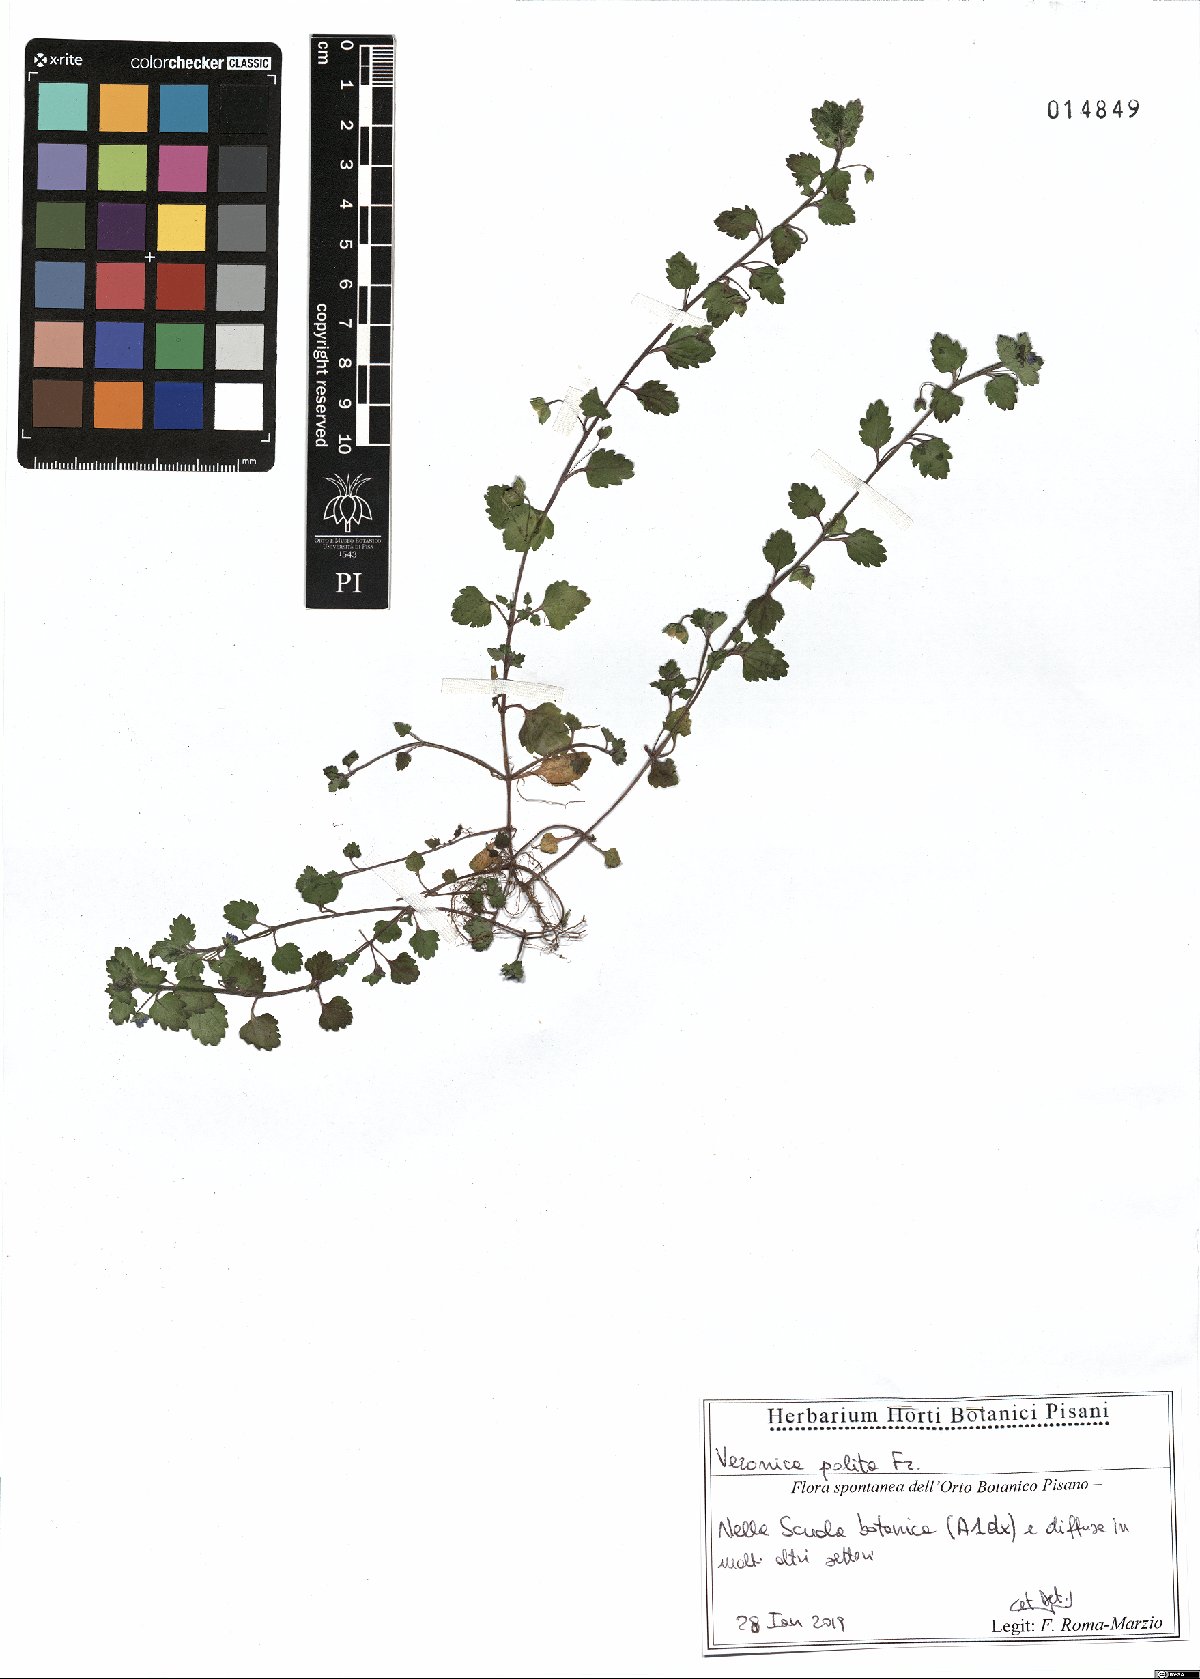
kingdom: Plantae
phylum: Tracheophyta
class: Magnoliopsida
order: Lamiales
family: Plantaginaceae
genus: Veronica
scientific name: Veronica polita
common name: Grey field-speedwell
